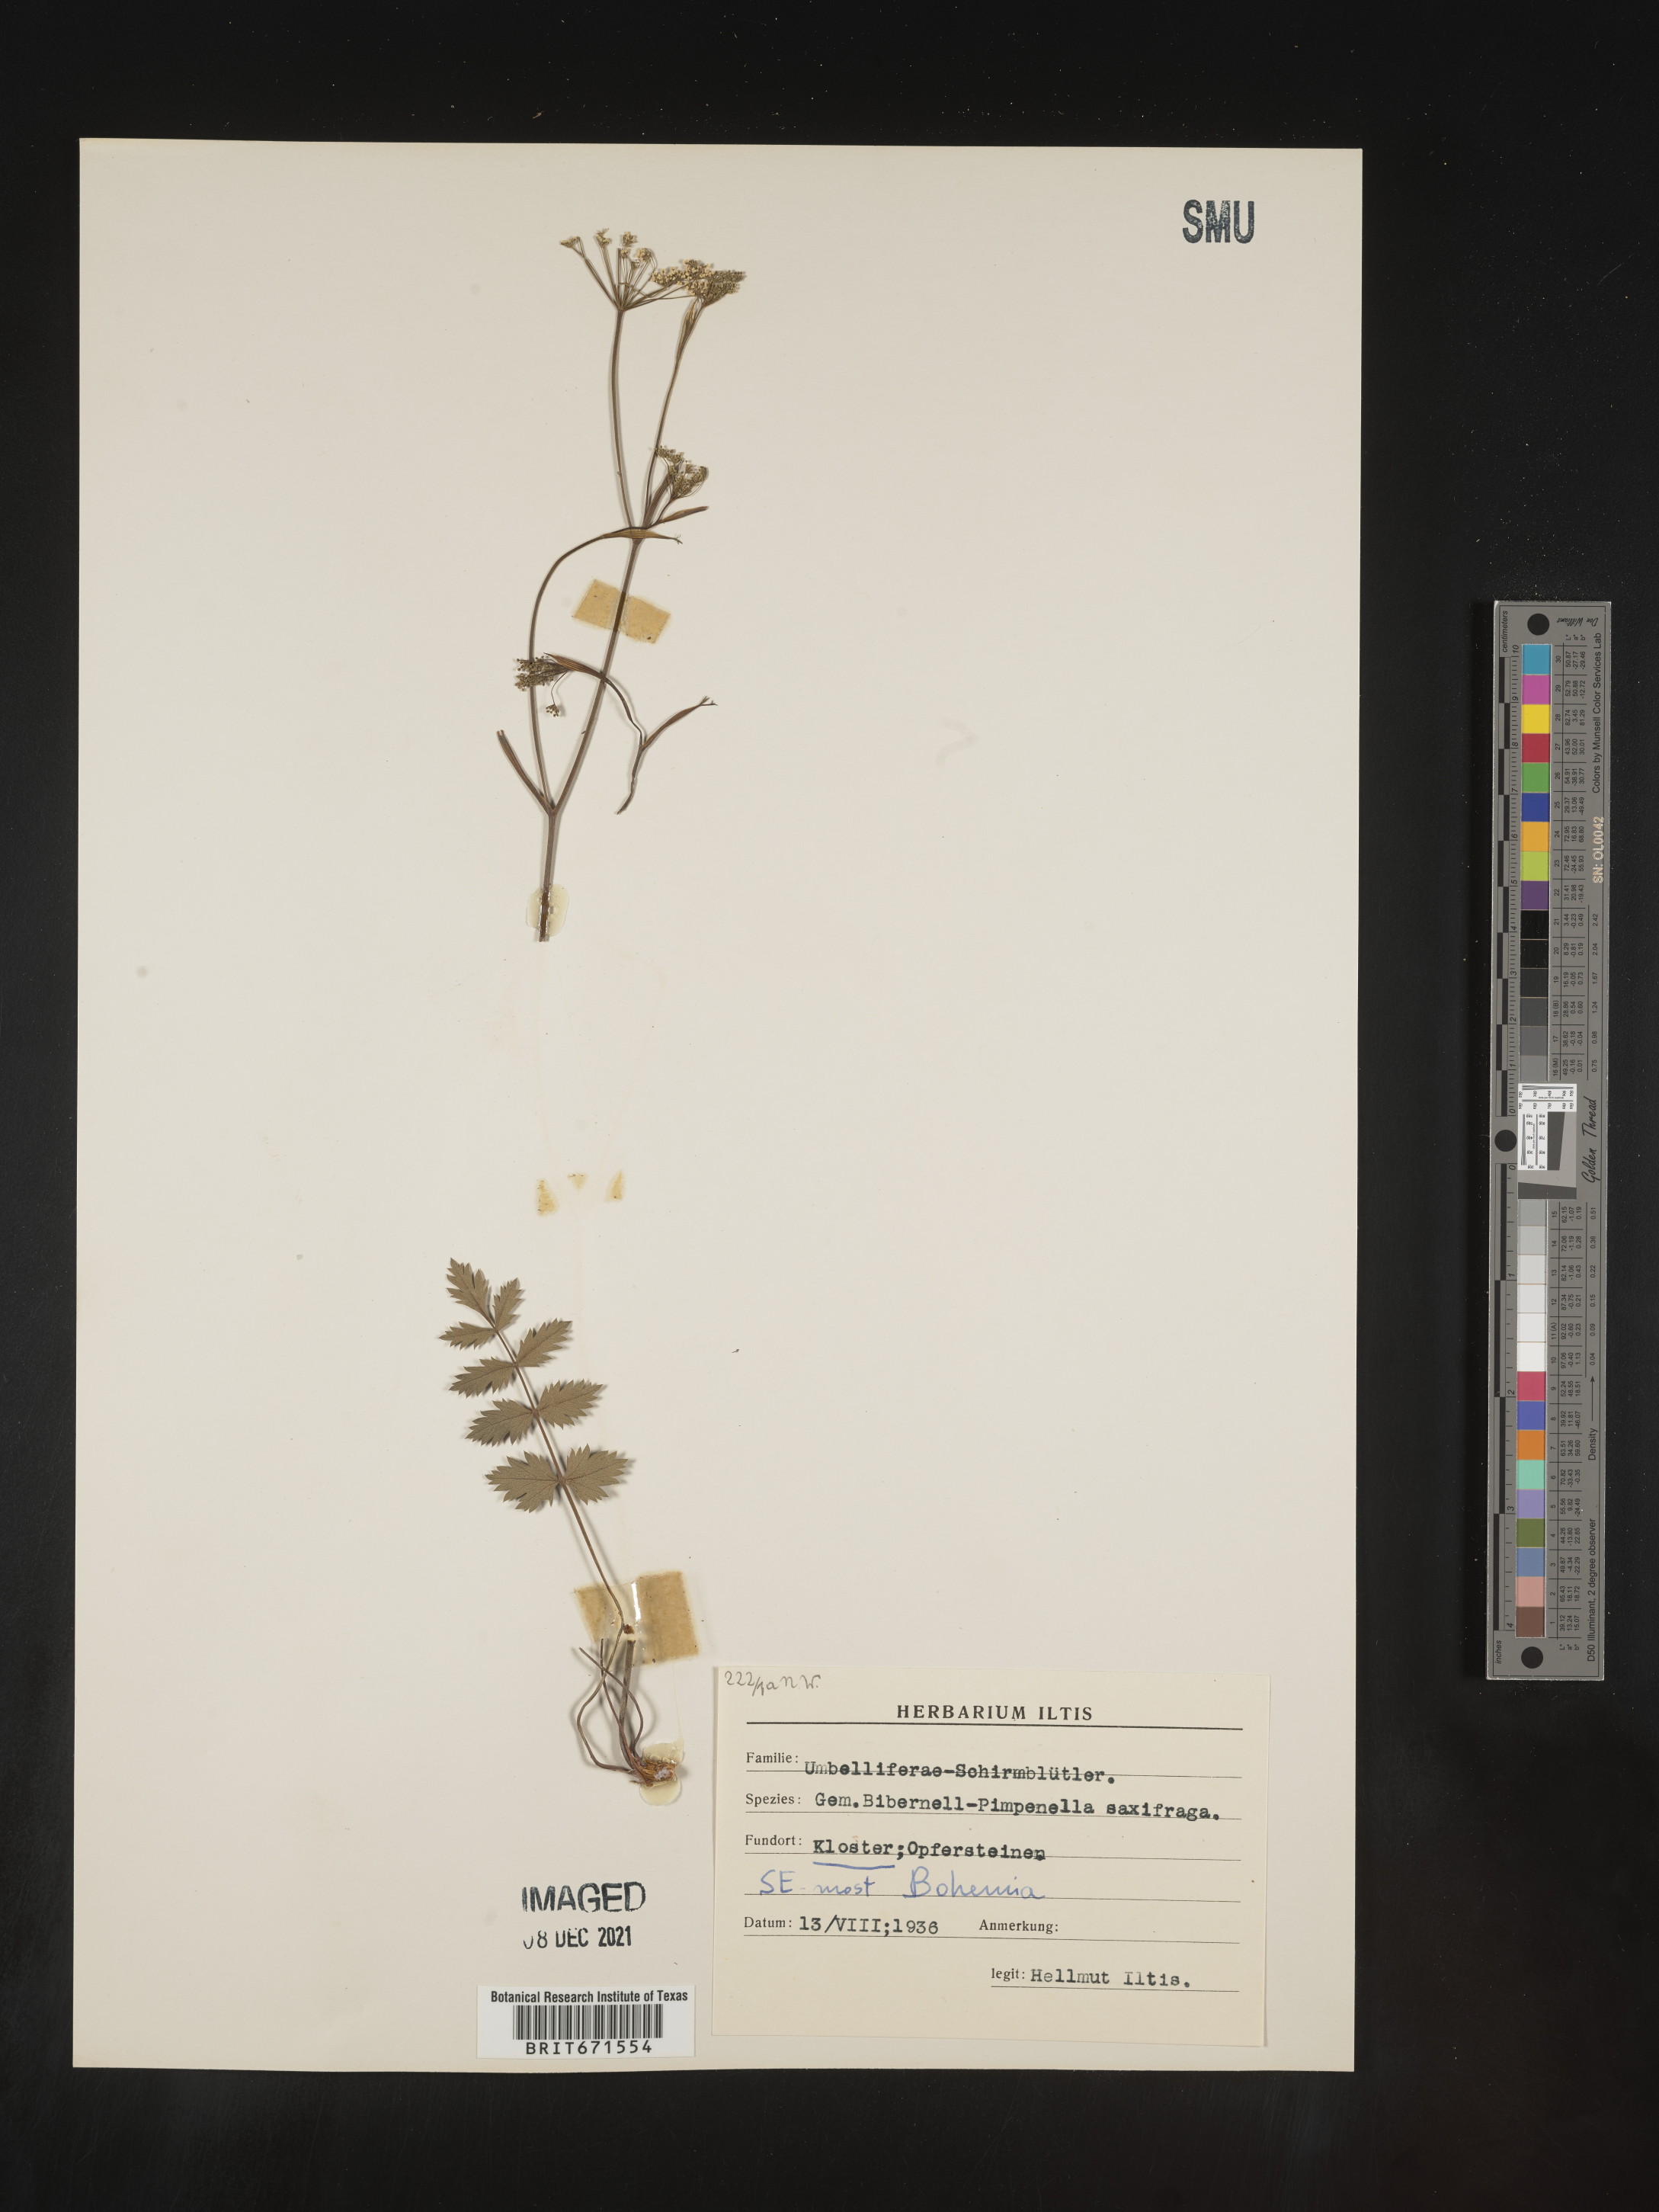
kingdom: Plantae
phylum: Tracheophyta
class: Magnoliopsida
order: Apiales
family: Apiaceae
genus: Pimpinella
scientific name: Pimpinella
